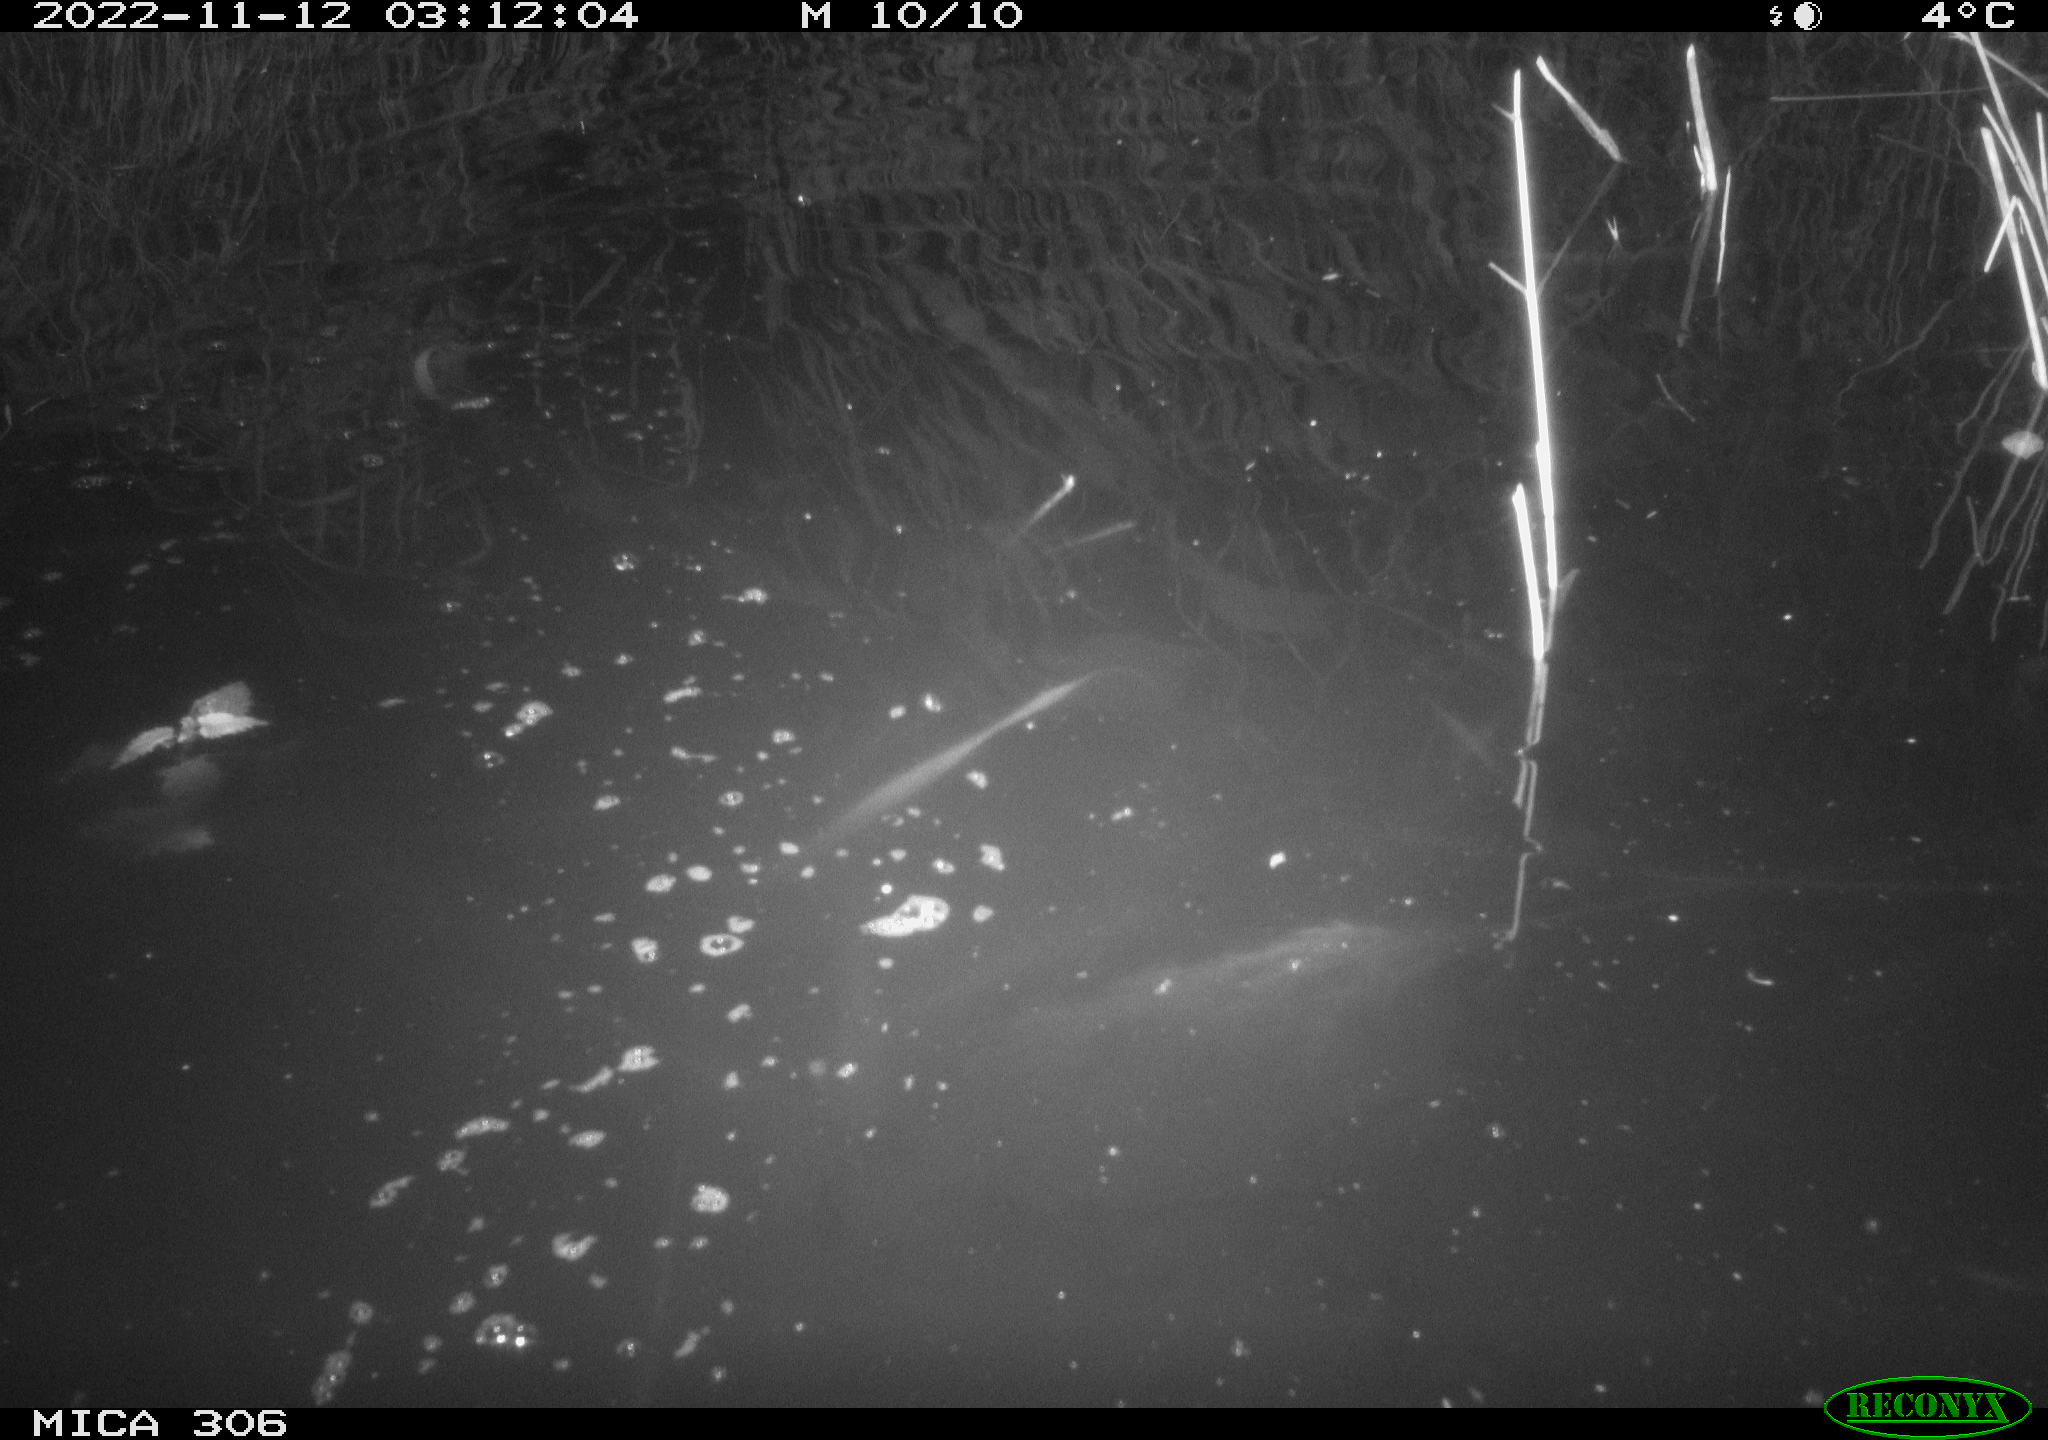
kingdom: Animalia
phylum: Chordata
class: Mammalia
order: Rodentia
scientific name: Rodentia
